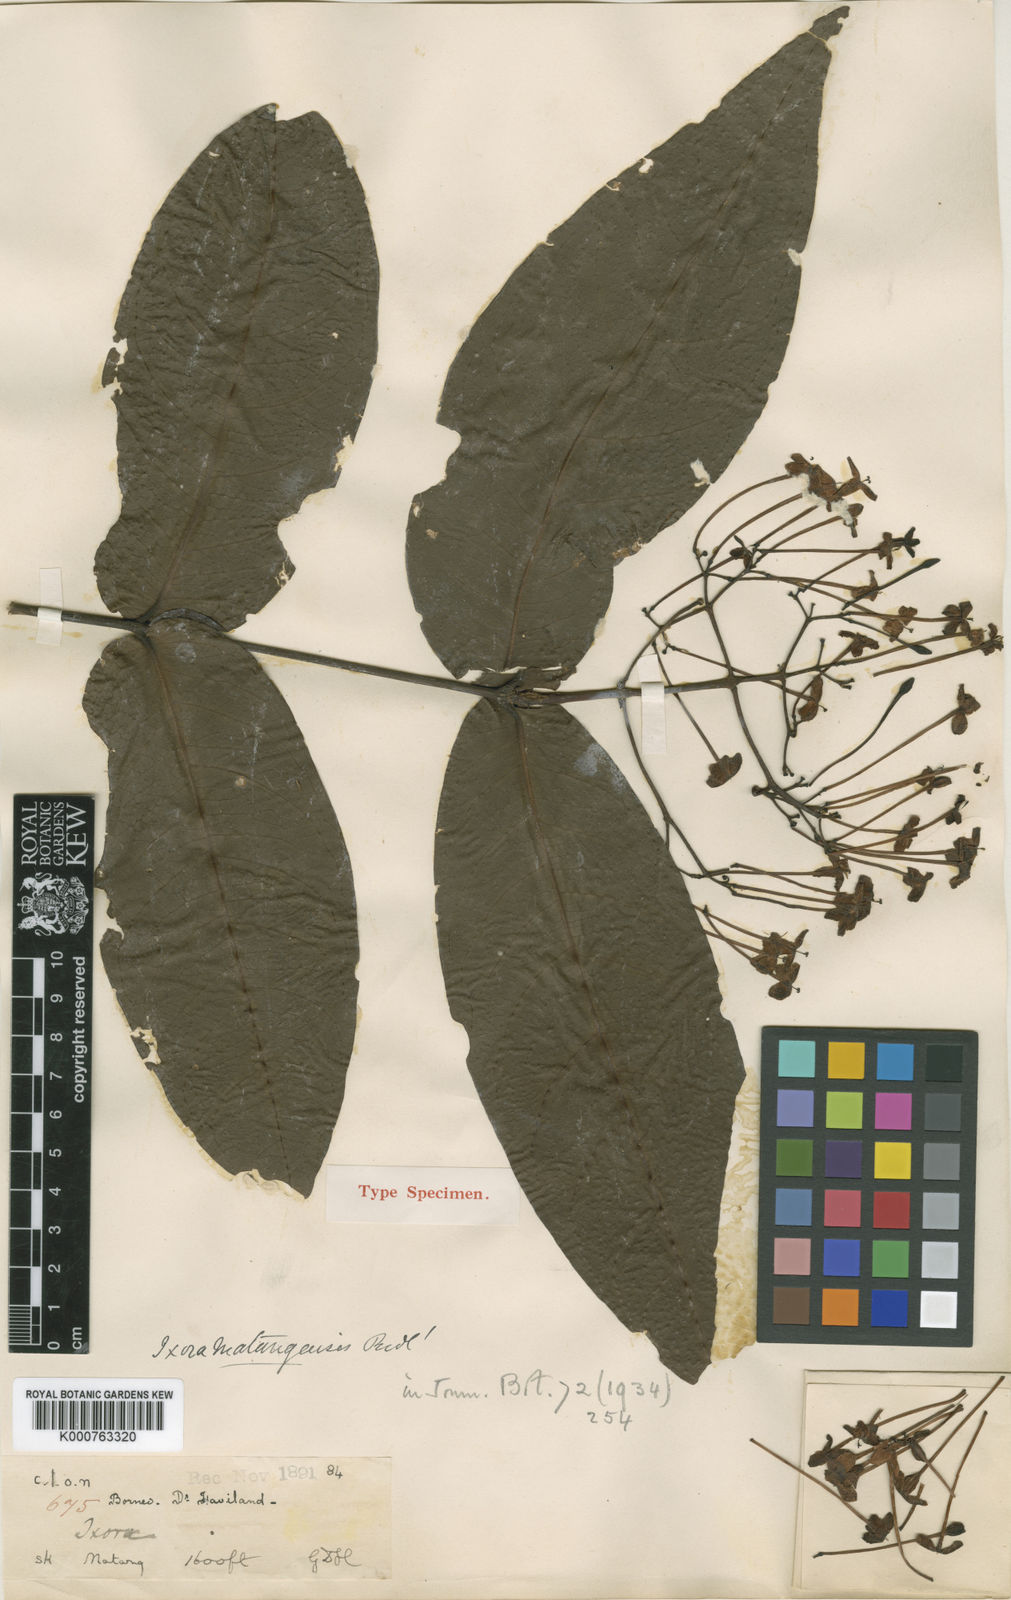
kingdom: Plantae
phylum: Tracheophyta
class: Magnoliopsida
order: Gentianales
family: Rubiaceae
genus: Ixora
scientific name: Ixora mjoebergii
